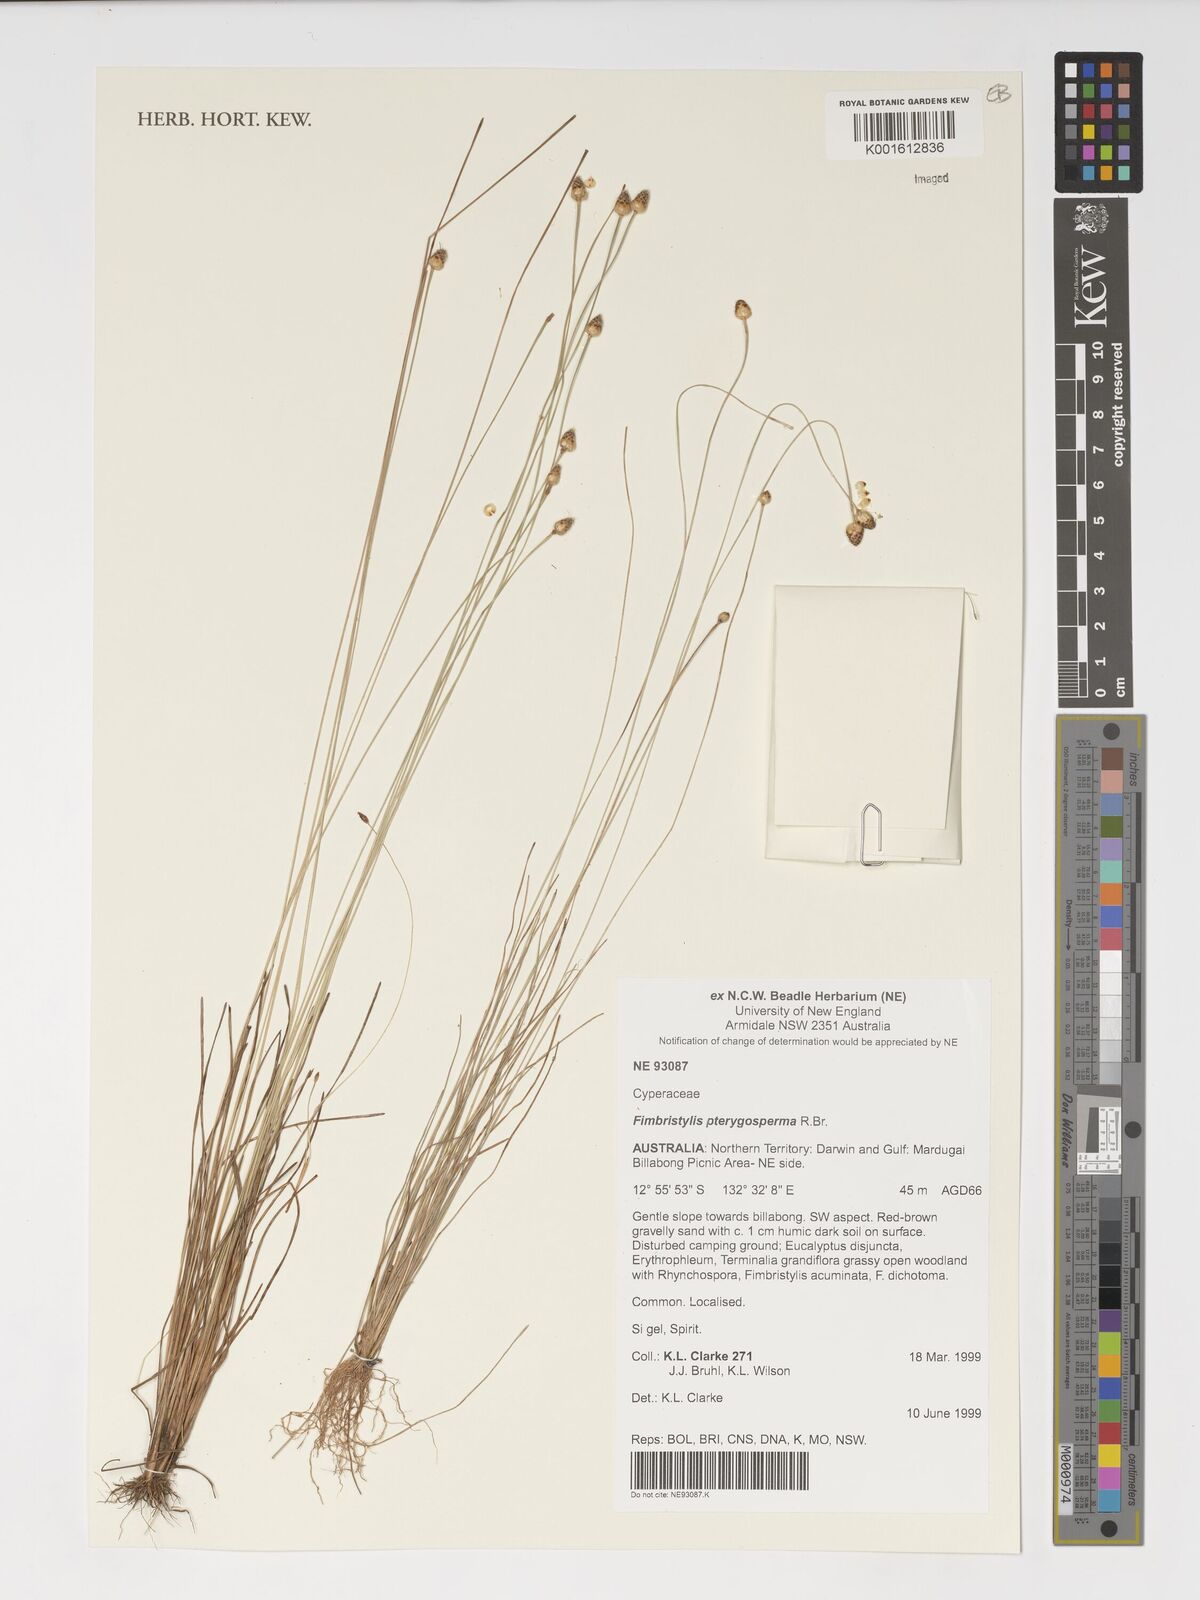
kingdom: Plantae
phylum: Tracheophyta
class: Liliopsida
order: Poales
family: Cyperaceae
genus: Fimbristylis
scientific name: Fimbristylis pterigosperma
